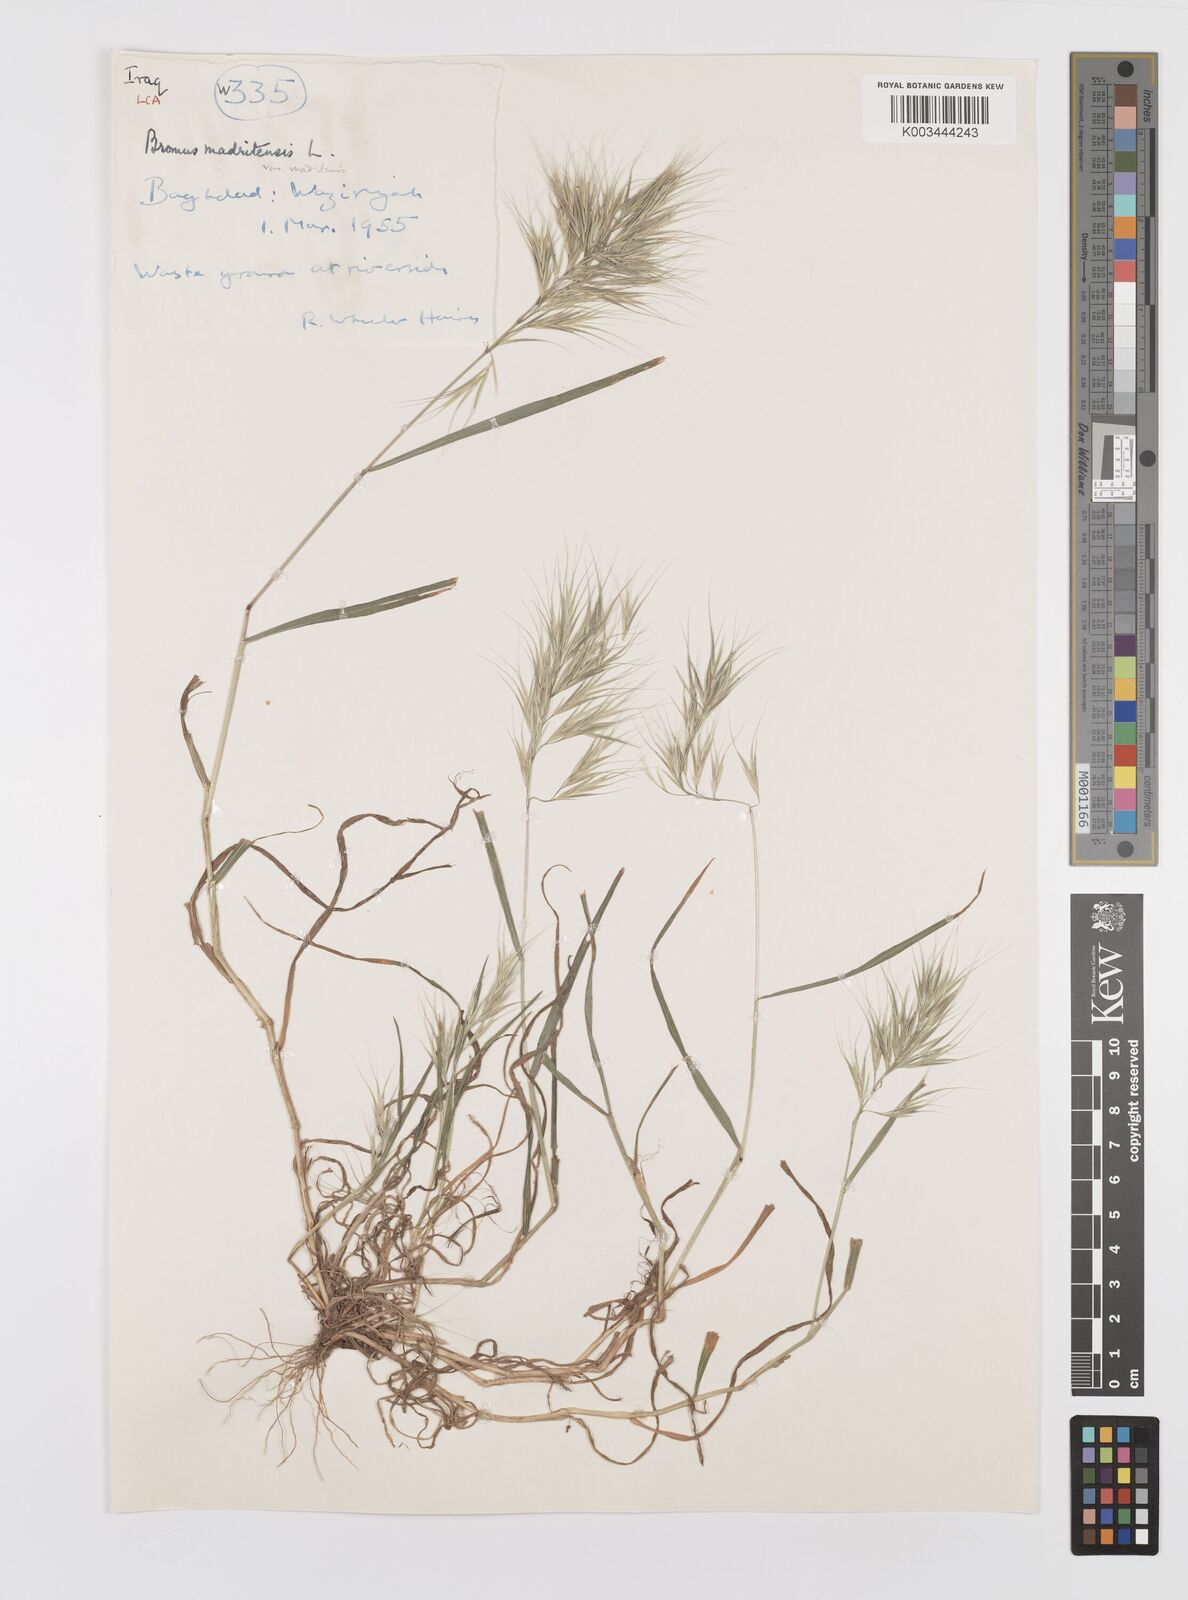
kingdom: Plantae
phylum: Tracheophyta
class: Liliopsida
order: Poales
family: Poaceae
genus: Bromus
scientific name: Bromus madritensis
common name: Compact brome
